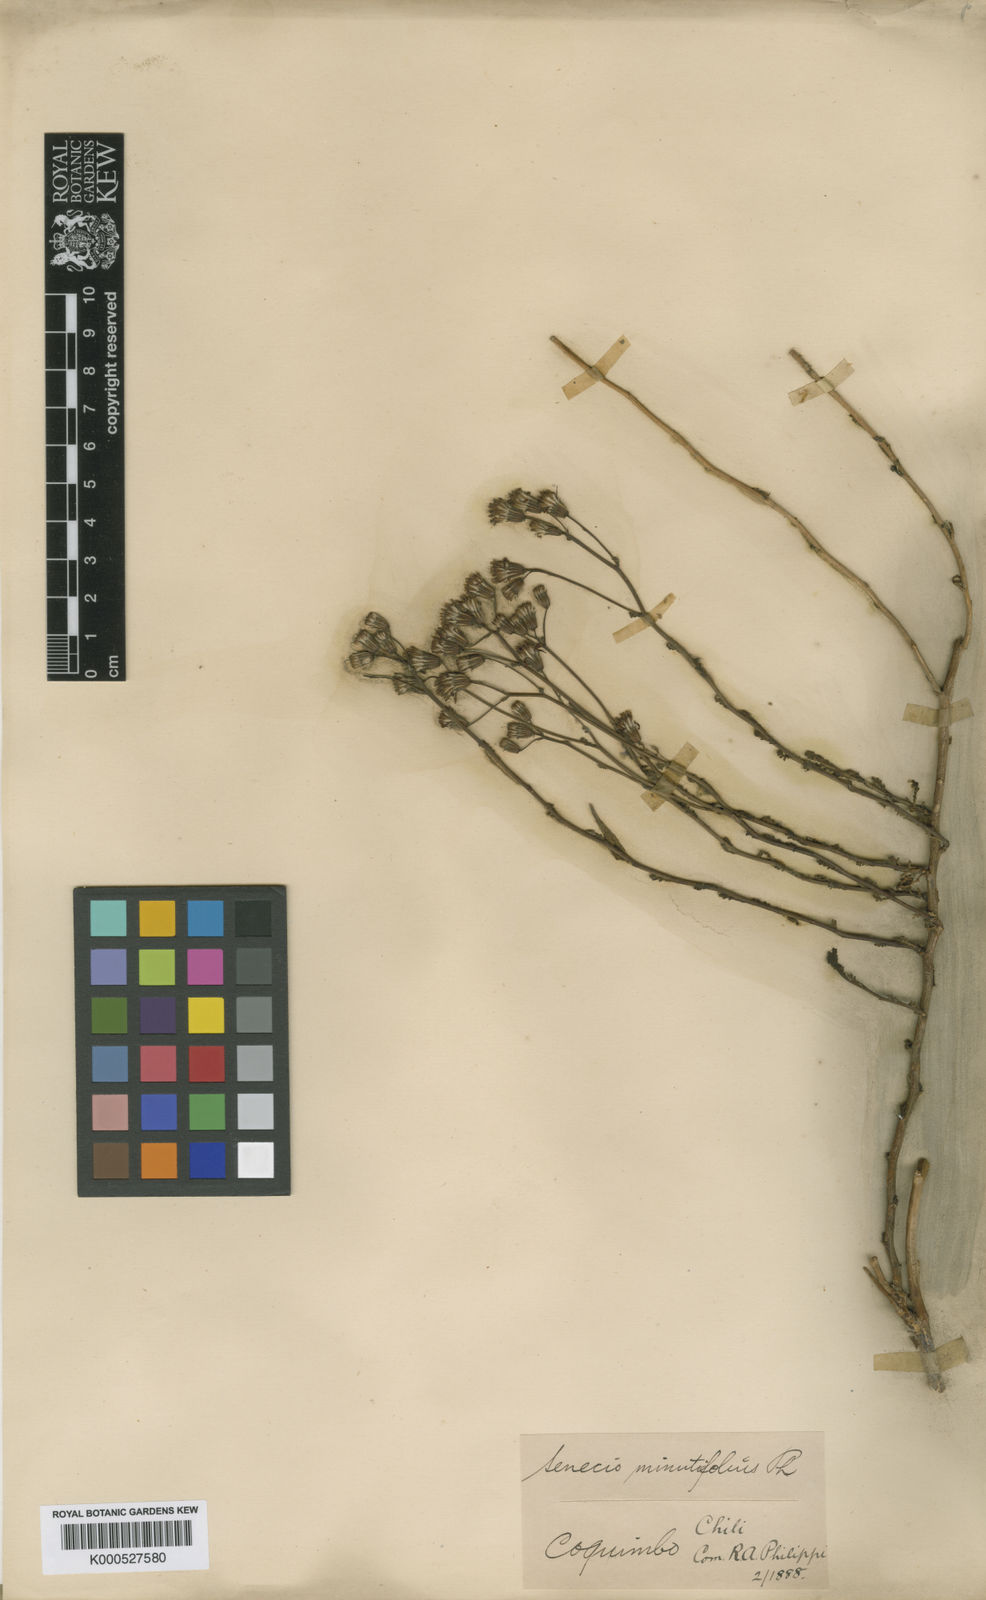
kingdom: Plantae
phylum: Tracheophyta
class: Magnoliopsida
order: Asterales
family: Asteraceae
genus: Senecio
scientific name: Senecio minutifolius
